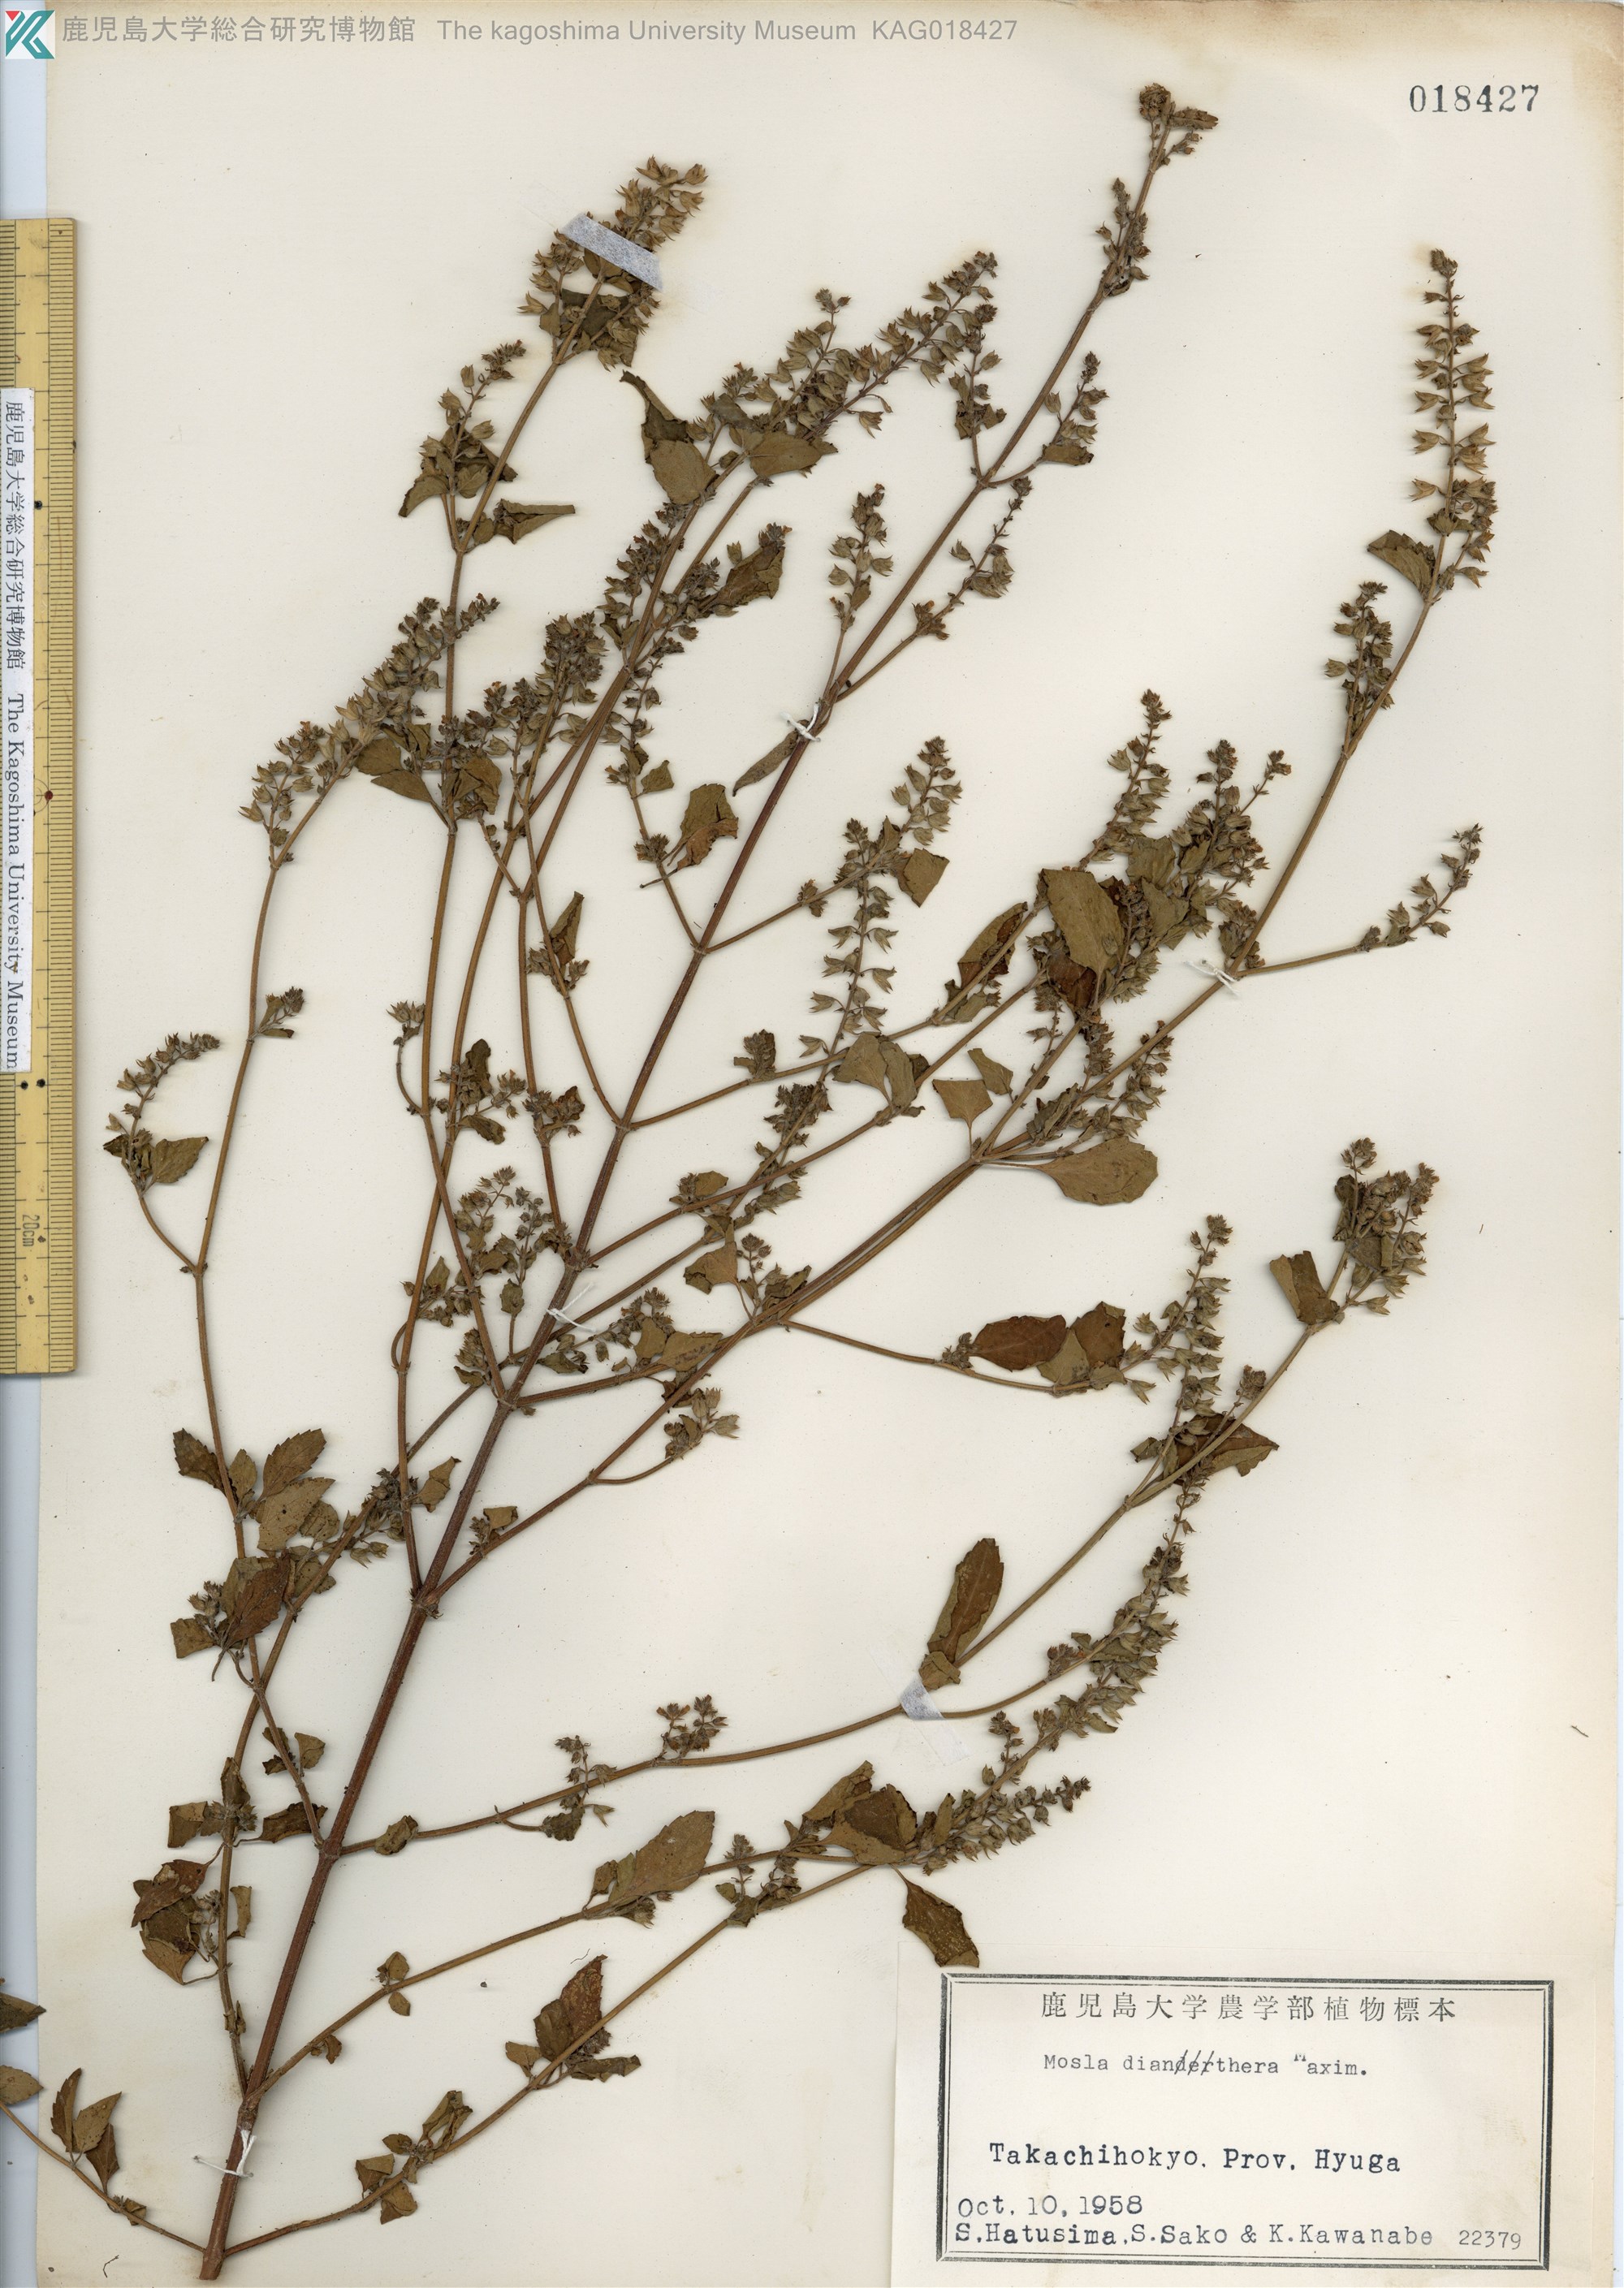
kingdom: Plantae
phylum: Tracheophyta
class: Magnoliopsida
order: Lamiales
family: Lamiaceae
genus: Mosla
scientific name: Mosla dianthera
